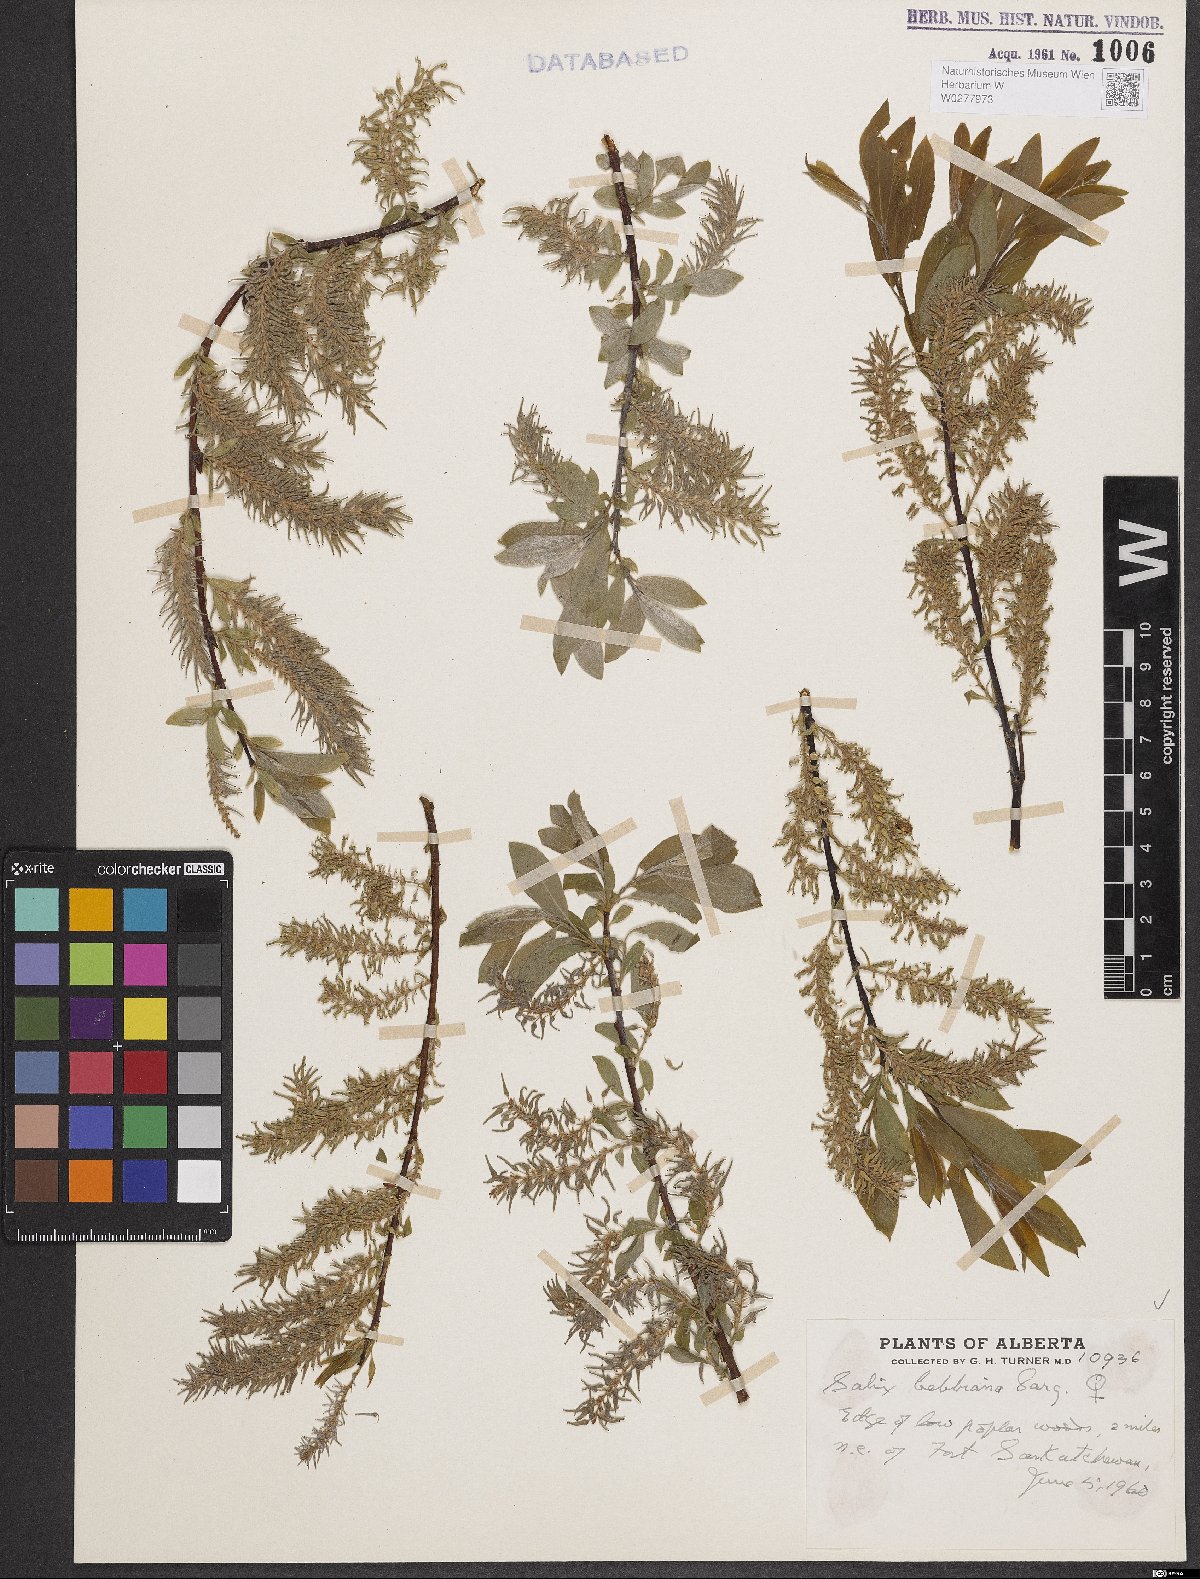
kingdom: Plantae
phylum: Tracheophyta
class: Magnoliopsida
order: Malpighiales
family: Salicaceae
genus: Salix
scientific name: Salix bebbiana
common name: Bebb's willow
